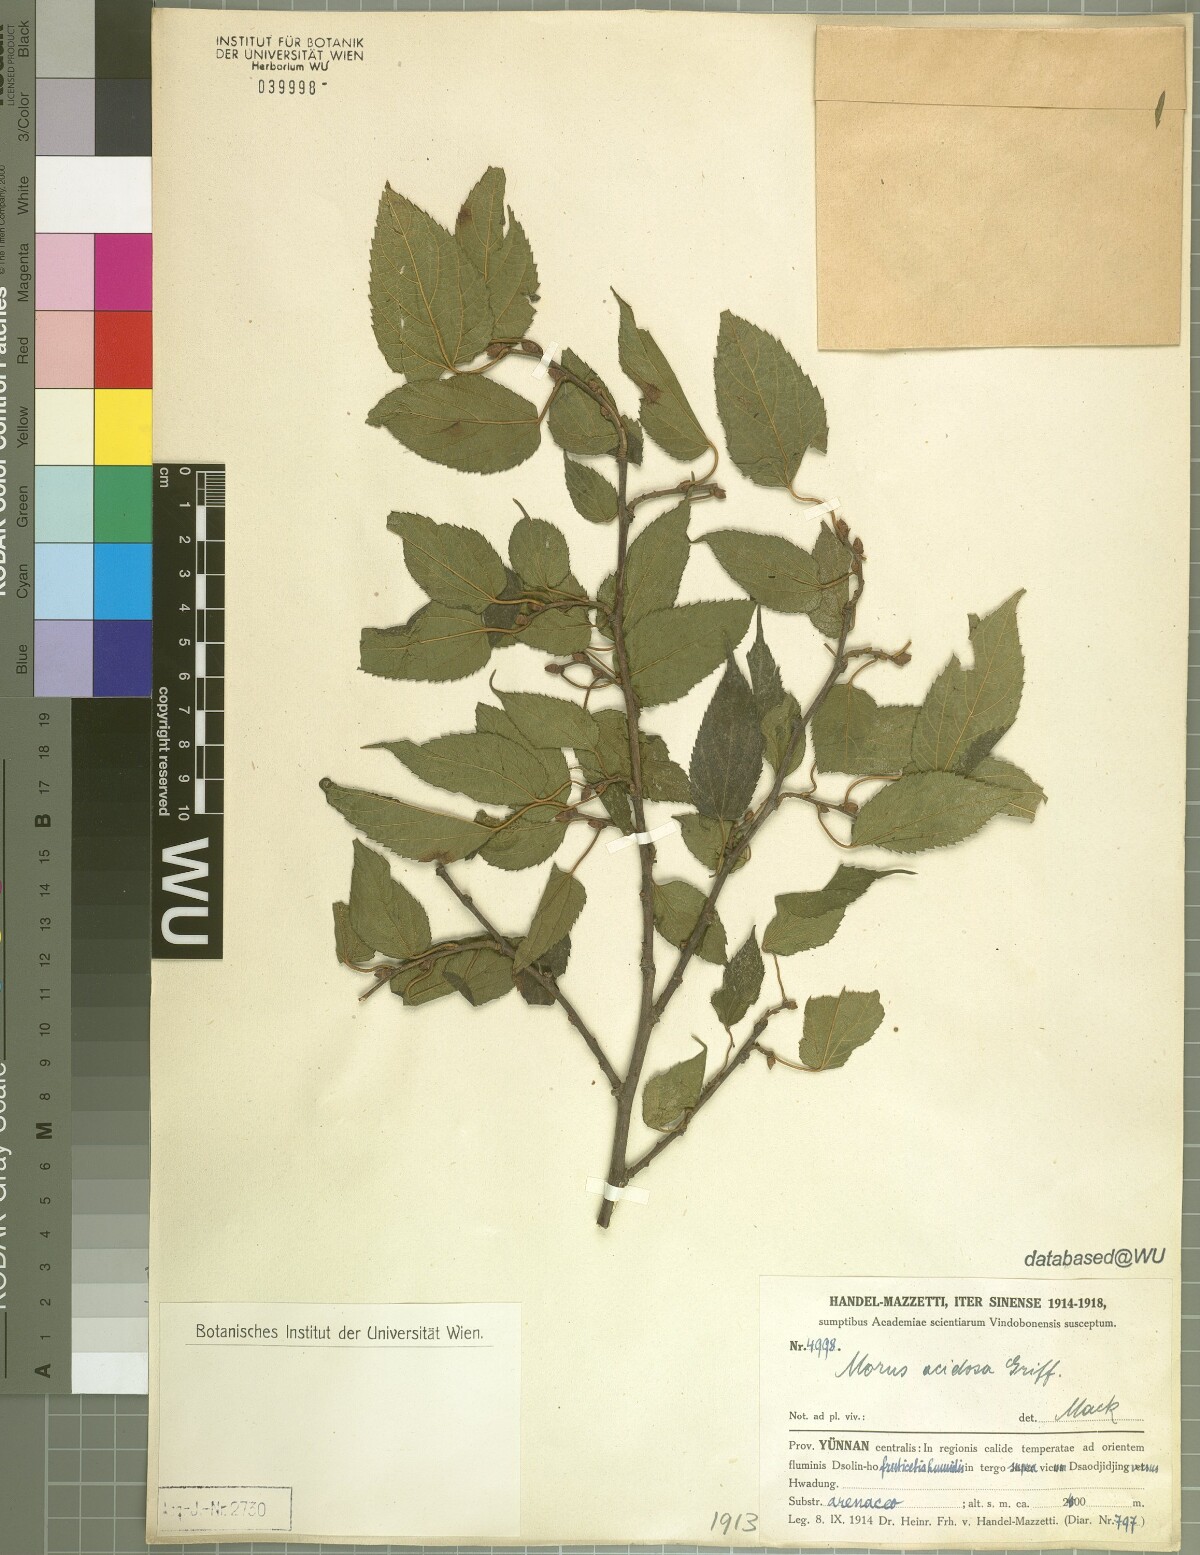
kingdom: Plantae
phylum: Tracheophyta
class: Magnoliopsida
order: Rosales
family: Moraceae
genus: Broussonetia
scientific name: Broussonetia papyrifera
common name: Paper mulberry
